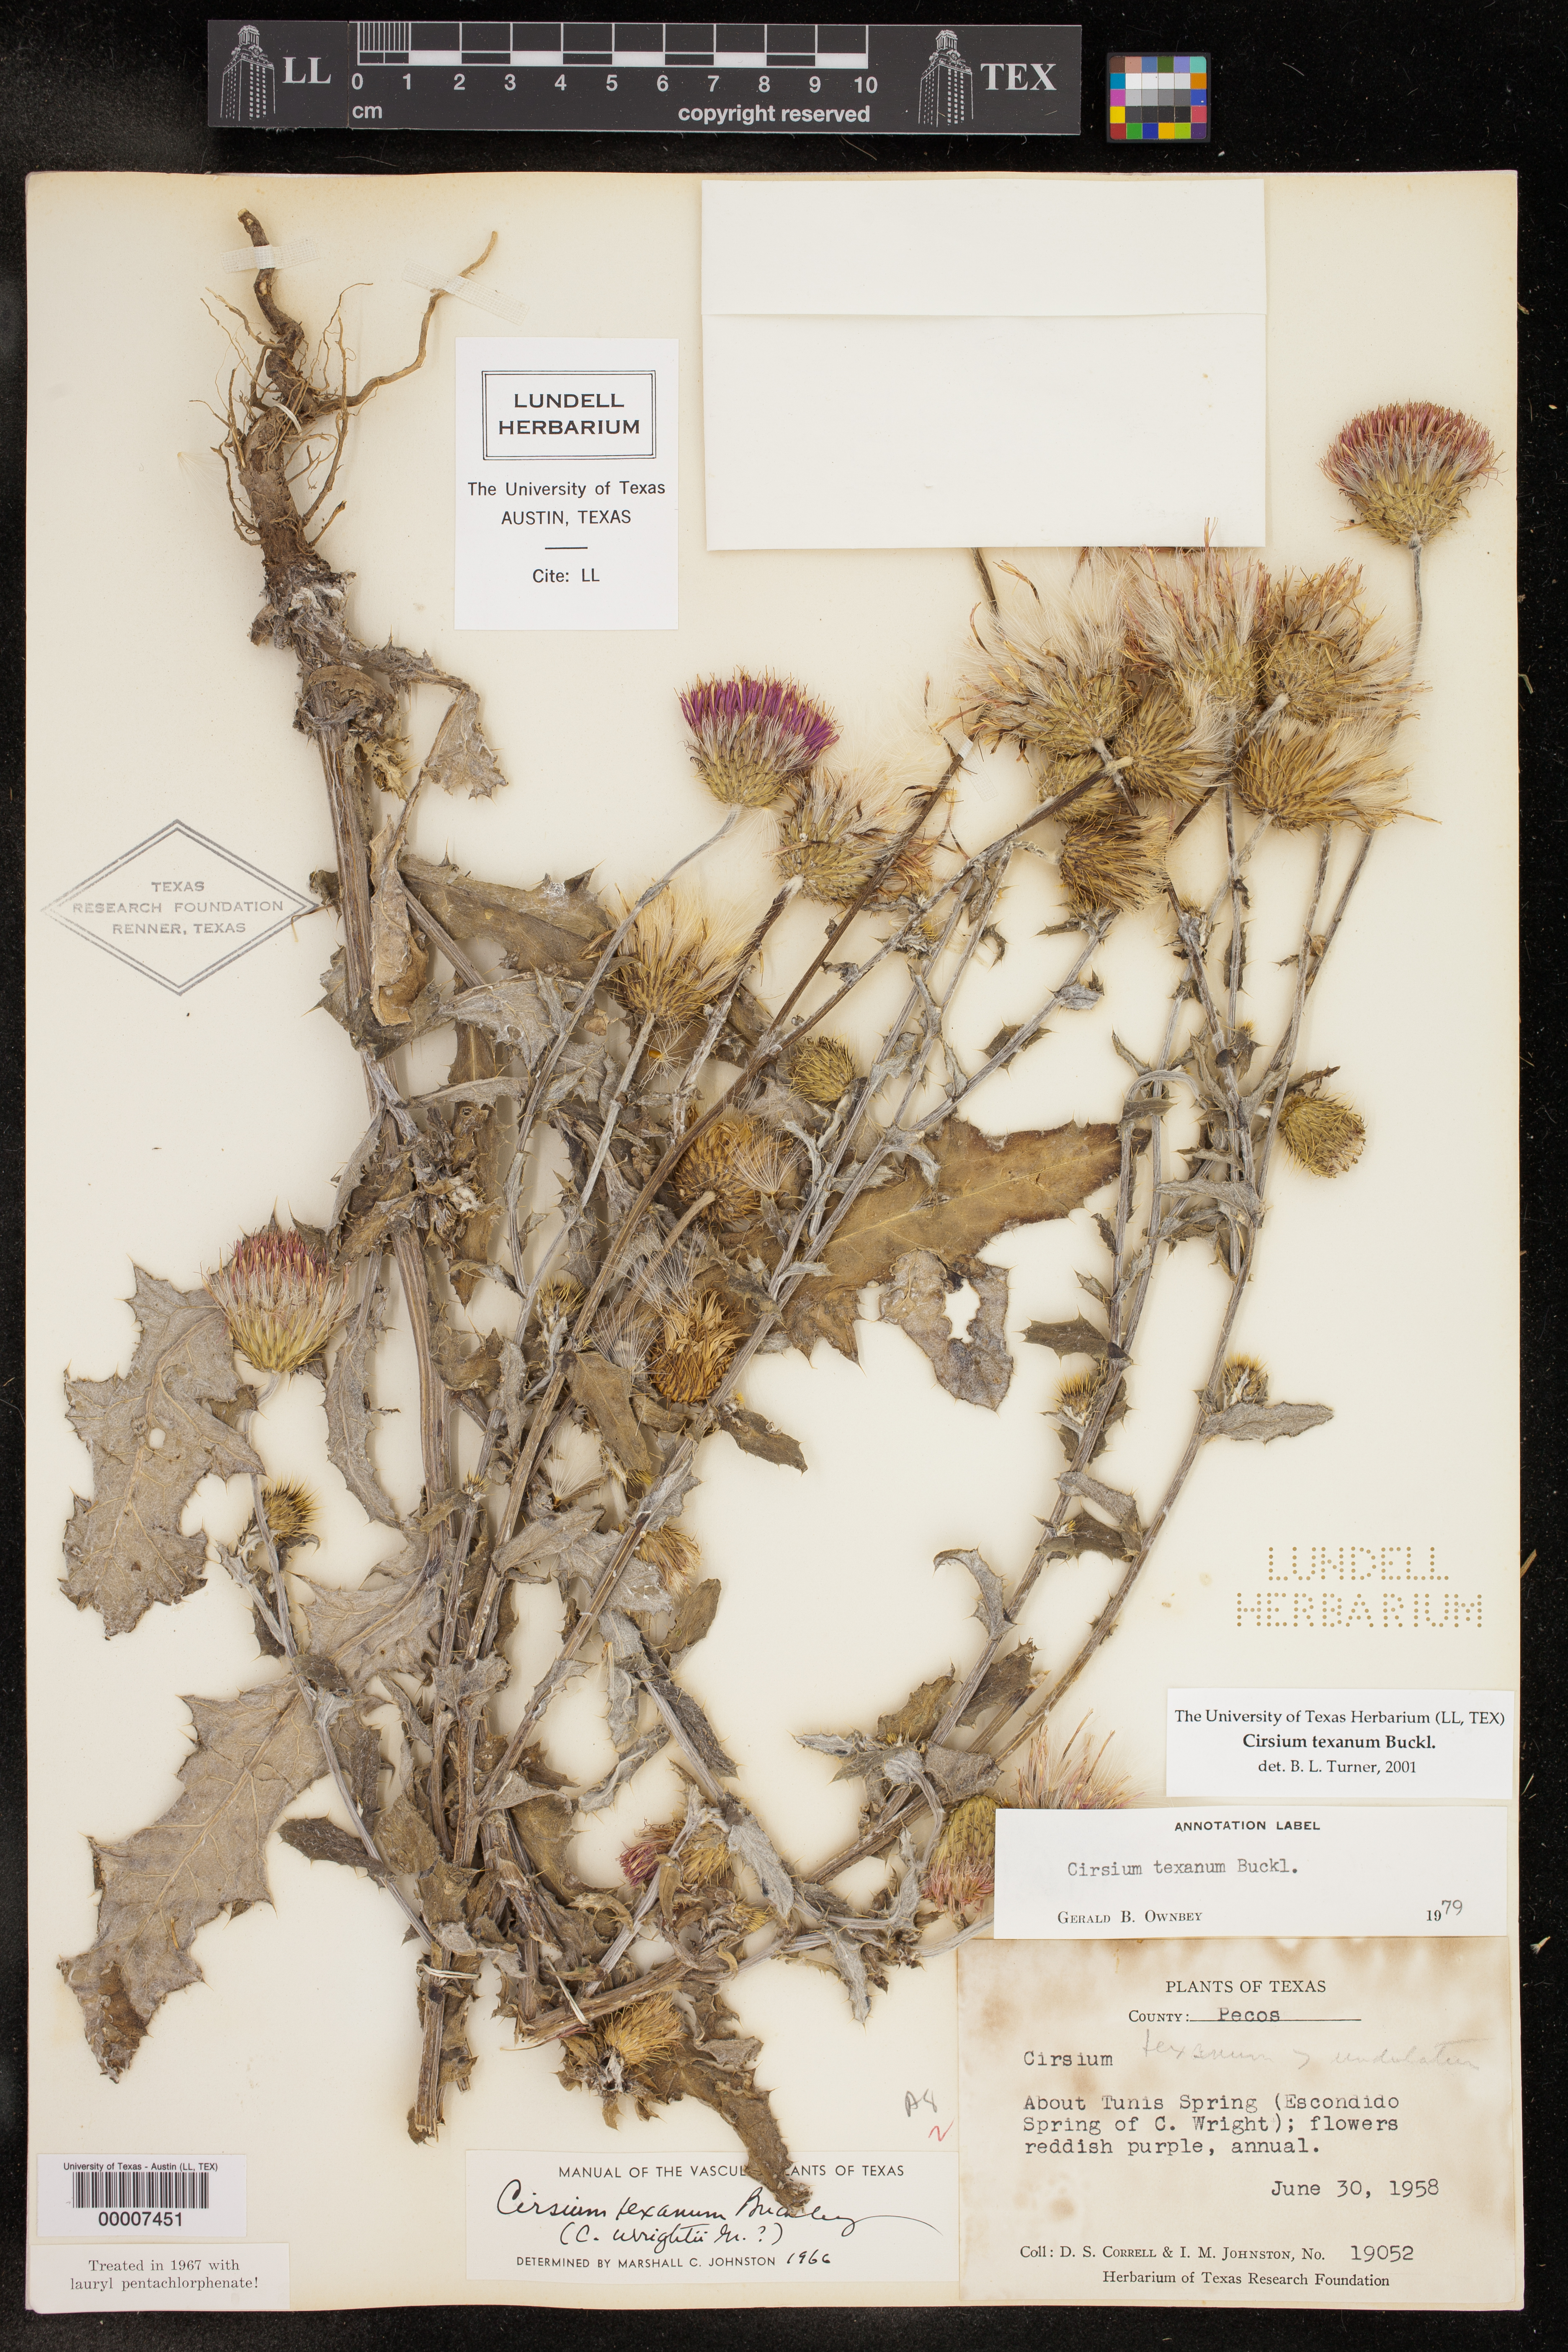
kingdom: Plantae
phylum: Tracheophyta
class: Magnoliopsida
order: Asterales
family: Asteraceae
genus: Cirsium
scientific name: Cirsium texanum
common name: Texas purple thistle
